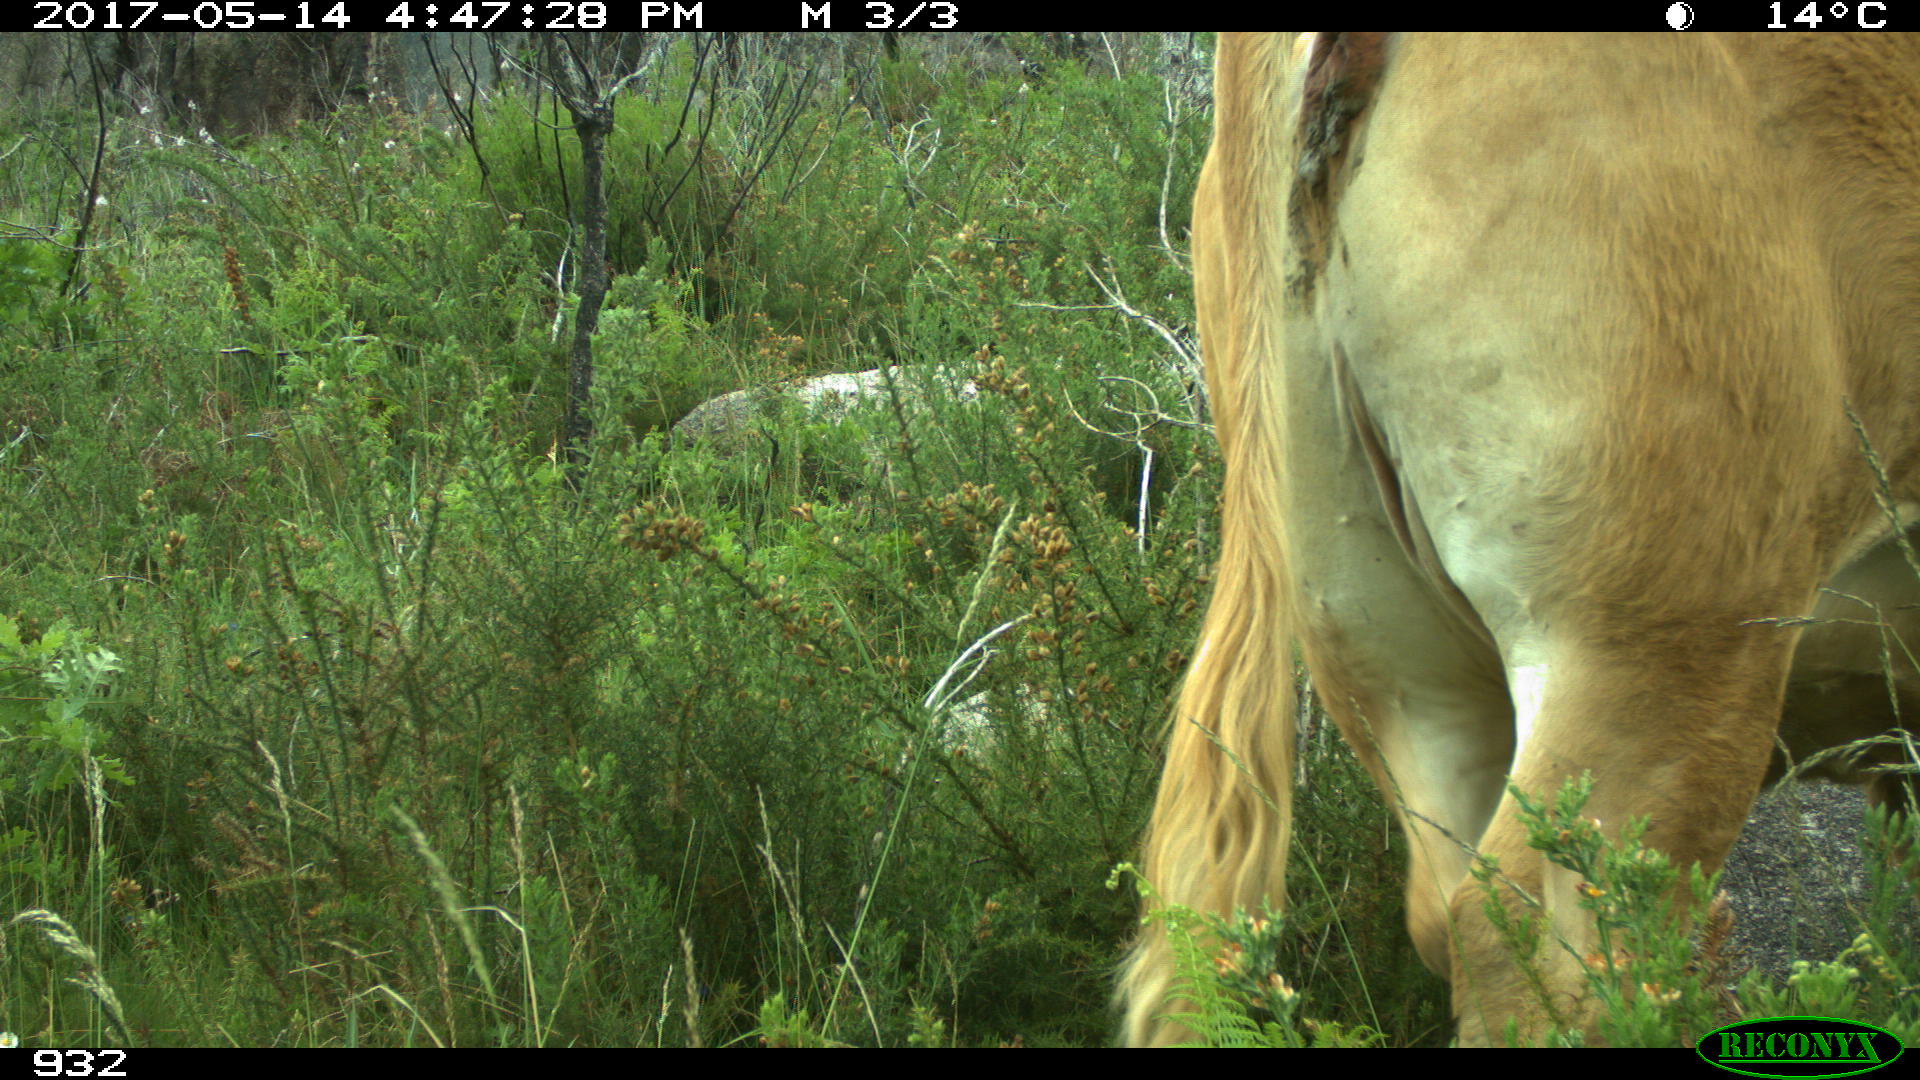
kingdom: Animalia
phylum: Chordata
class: Mammalia
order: Artiodactyla
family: Bovidae
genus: Bos
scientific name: Bos taurus
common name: Domesticated cattle
